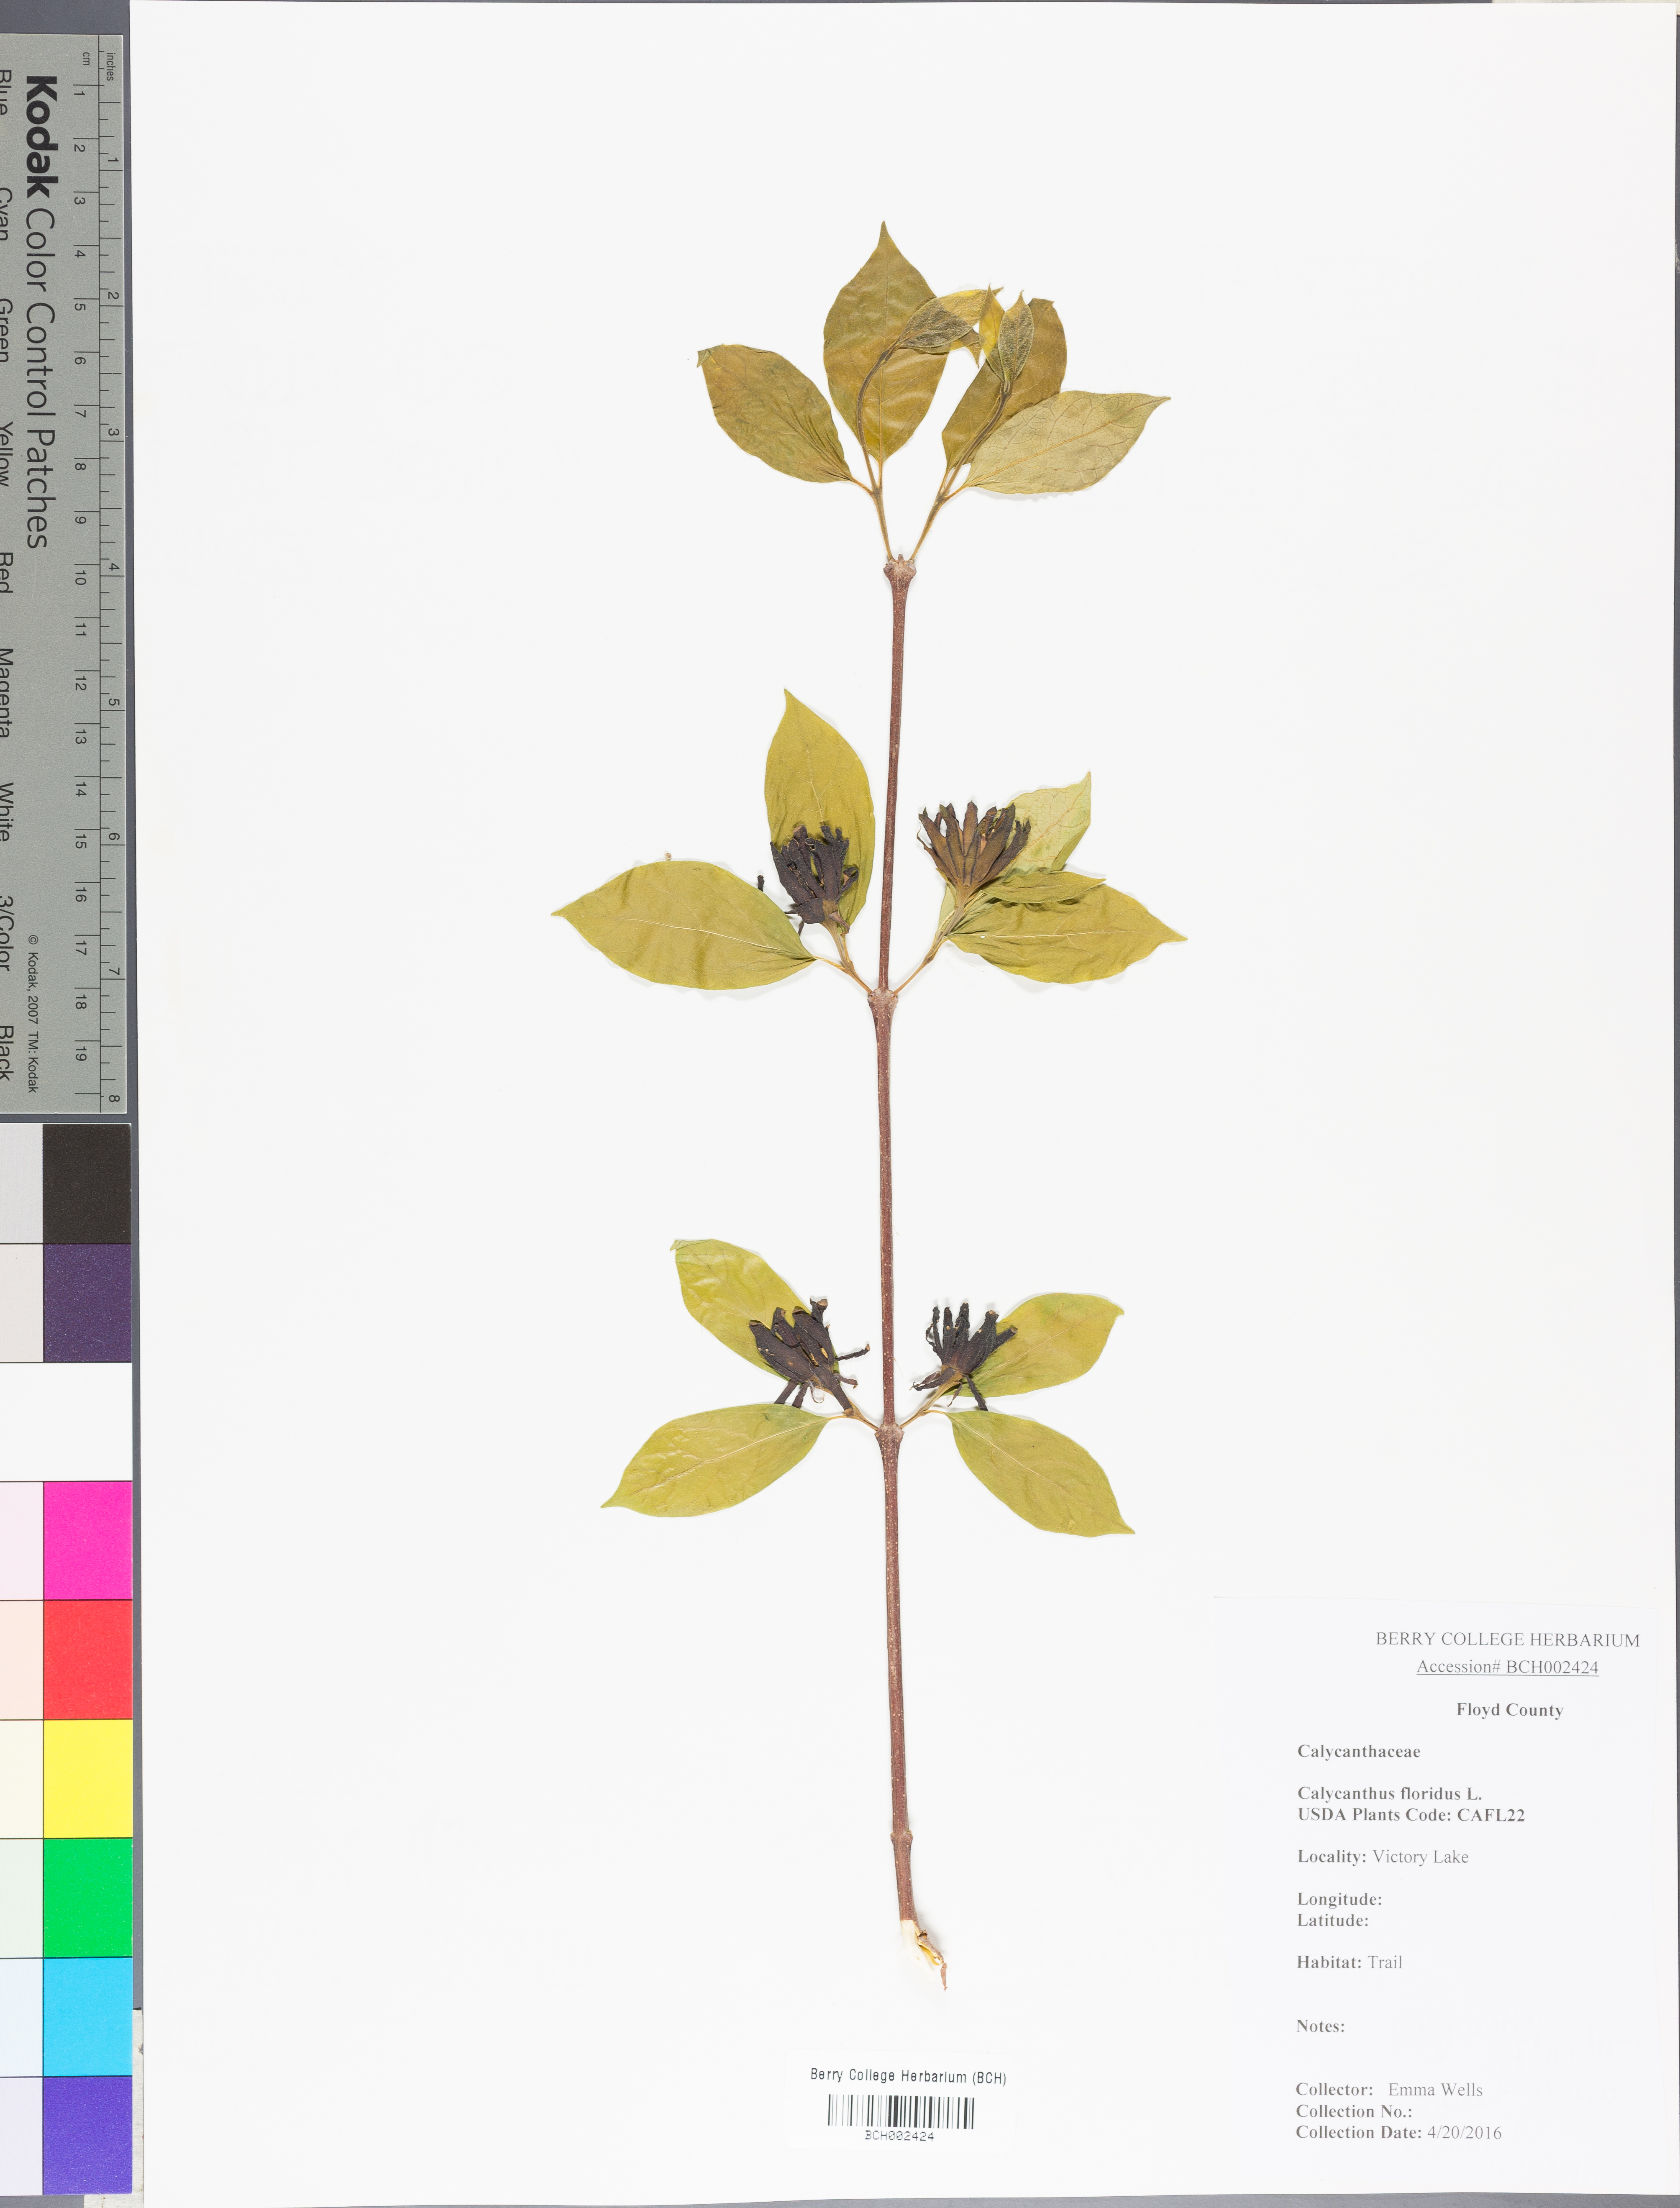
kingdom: Plantae
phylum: Tracheophyta
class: Magnoliopsida
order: Laurales
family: Calycanthaceae
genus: Calycanthus
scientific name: Calycanthus floridus
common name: Carolina-allspice
